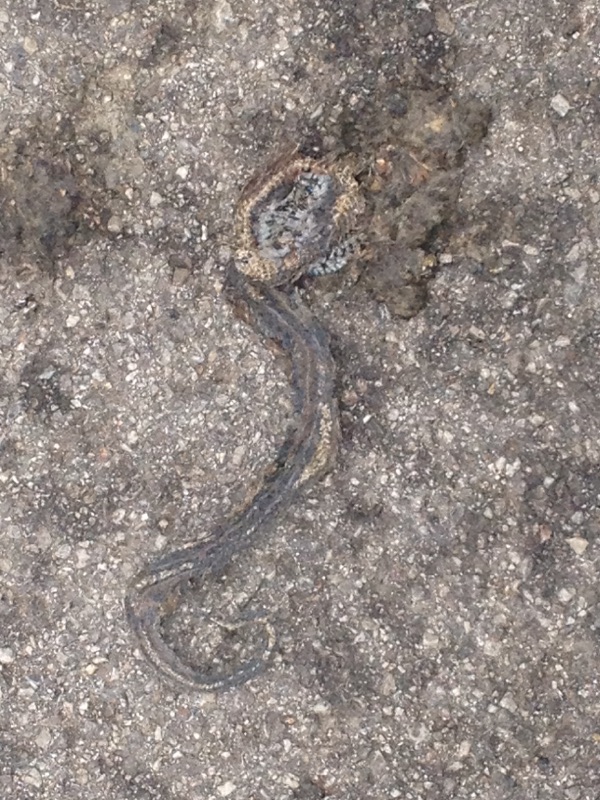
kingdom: Animalia
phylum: Chordata
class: Squamata
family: Colubridae
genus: Natrix
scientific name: Natrix natrix
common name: Grass snake
